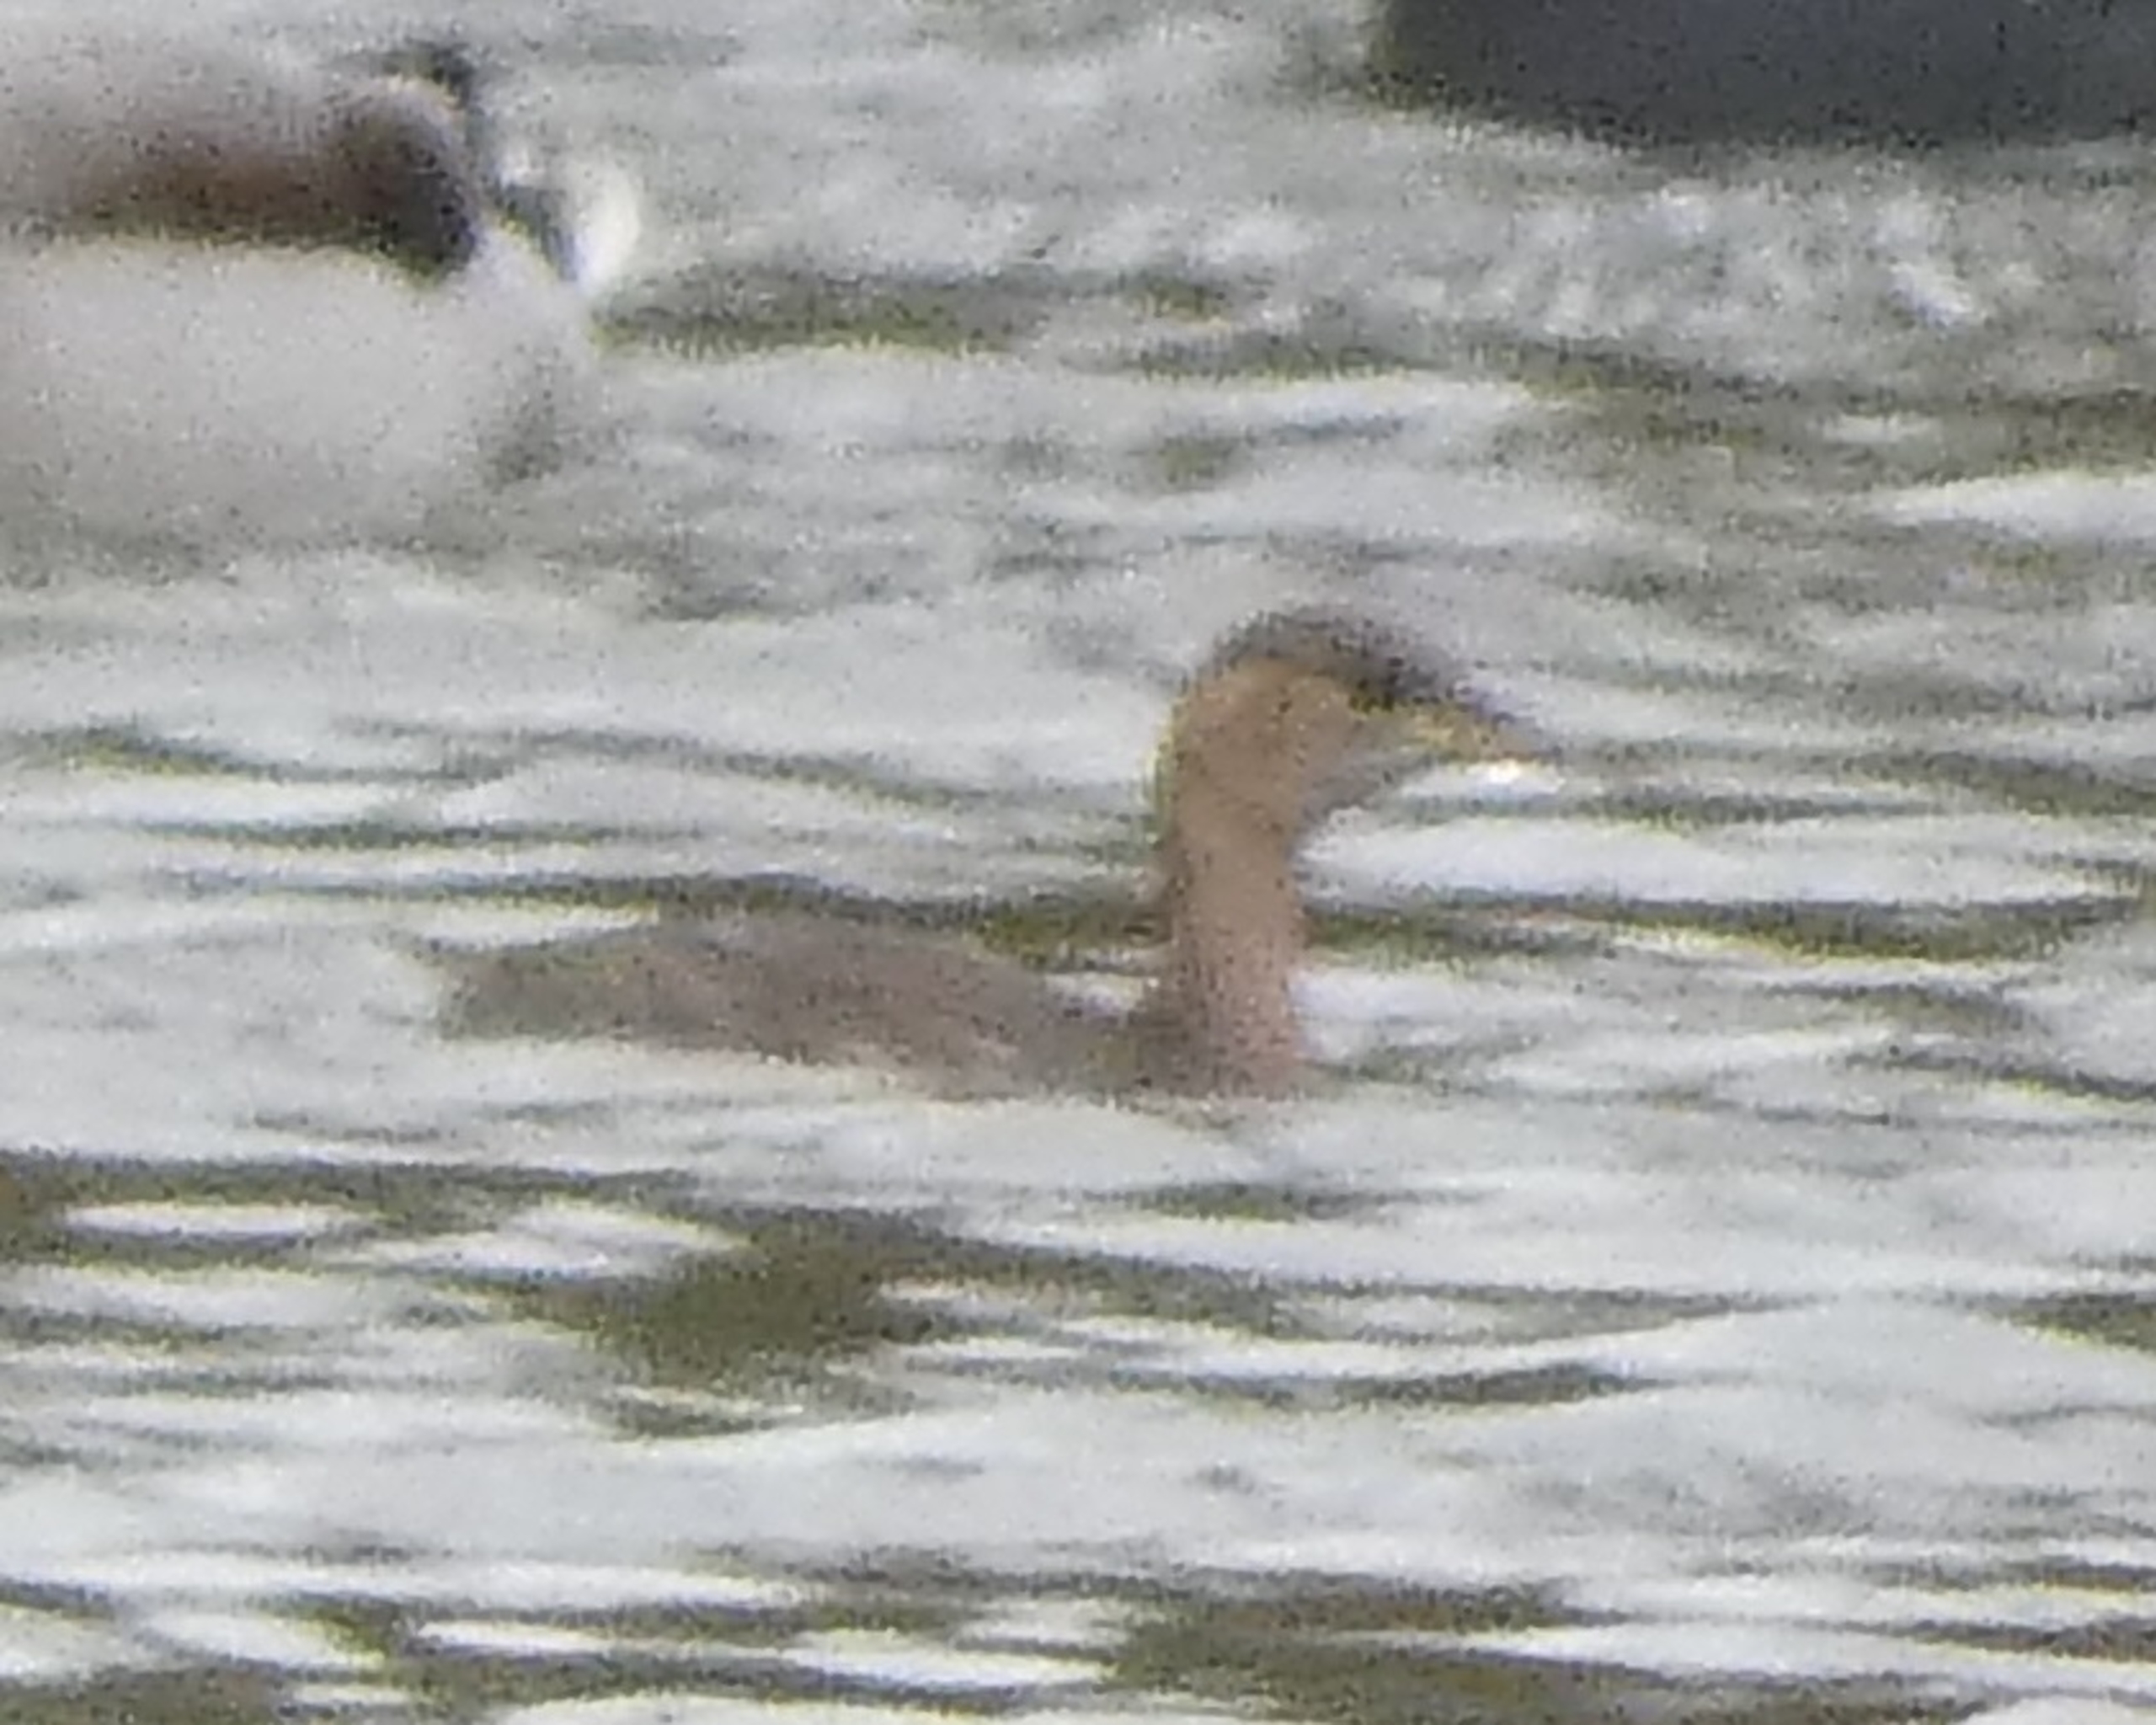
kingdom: Animalia
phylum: Chordata
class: Aves
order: Podicipediformes
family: Podicipedidae
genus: Tachybaptus
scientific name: Tachybaptus ruficollis
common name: Lille lappedykker
